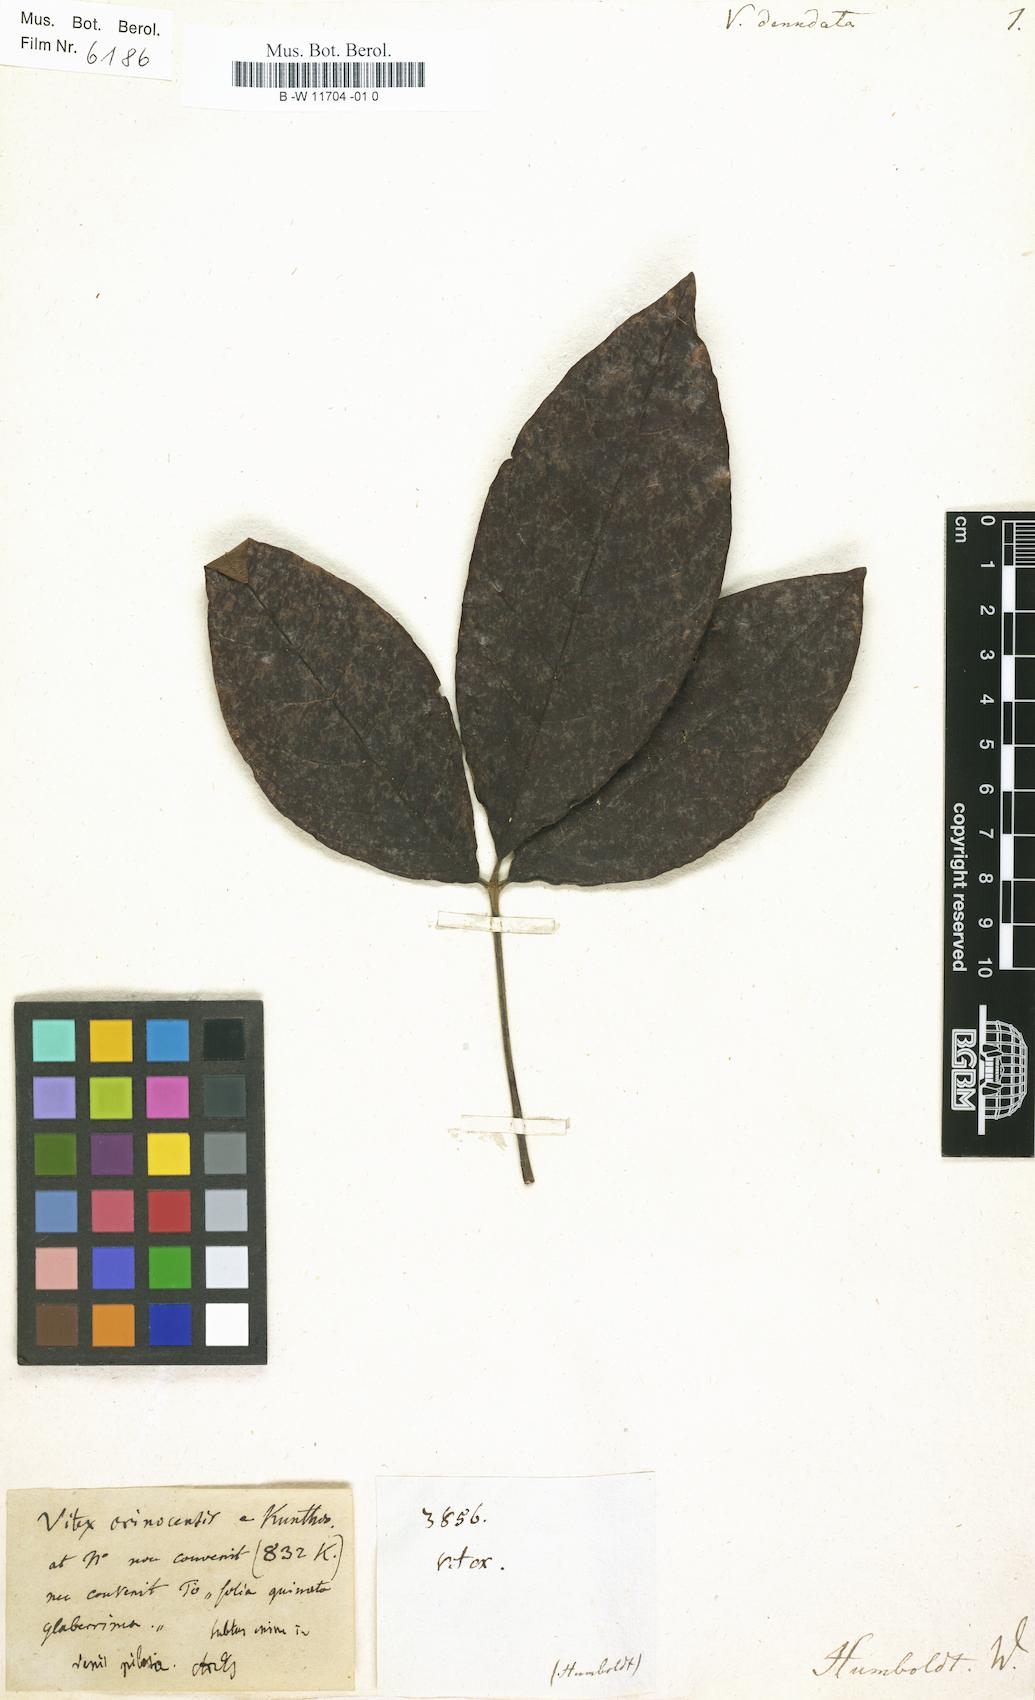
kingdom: Plantae
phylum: Tracheophyta
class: Magnoliopsida
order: Lamiales
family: Lamiaceae
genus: Vitex
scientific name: Vitex petersiana
